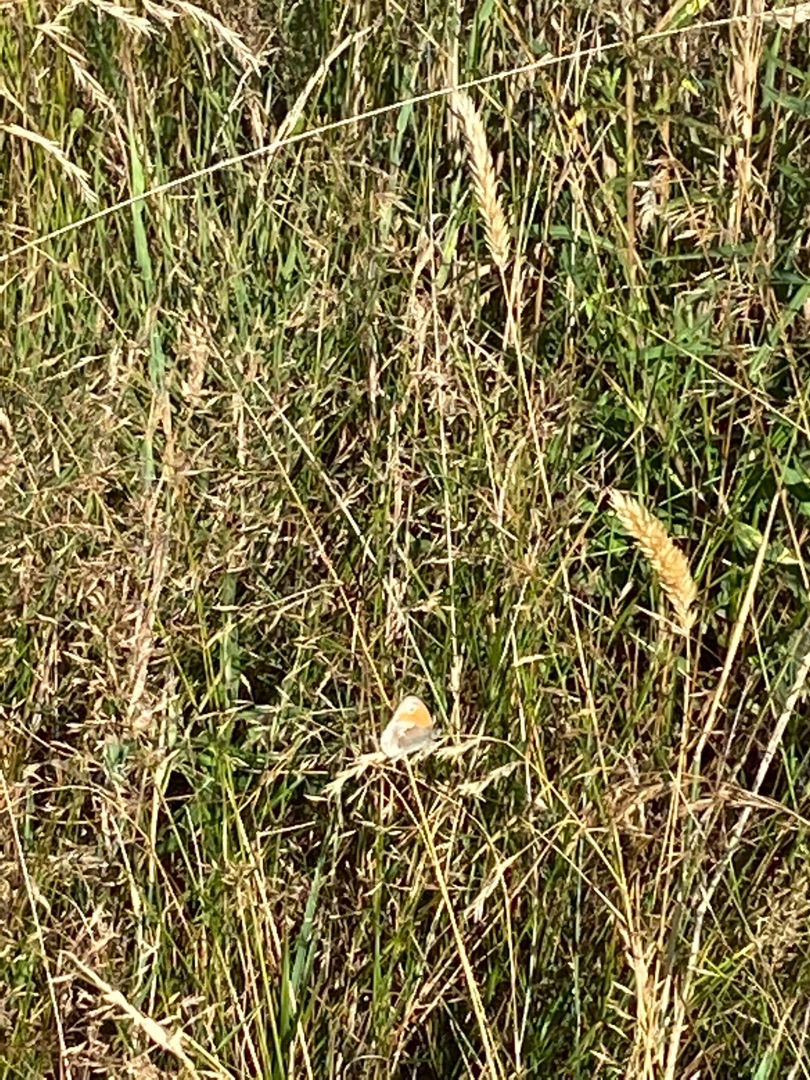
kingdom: Animalia
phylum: Arthropoda
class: Insecta
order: Lepidoptera
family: Nymphalidae
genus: Coenonympha
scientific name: Coenonympha pamphilus
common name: Okkergul randøje
